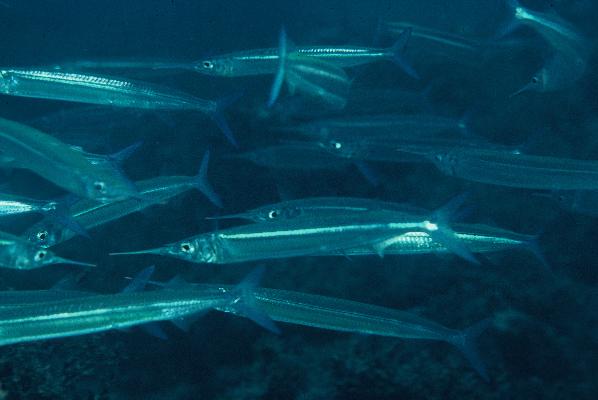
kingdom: Animalia
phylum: Chordata
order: Beloniformes
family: Hemiramphidae
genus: Hyporhamphus
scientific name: Hyporhamphus
